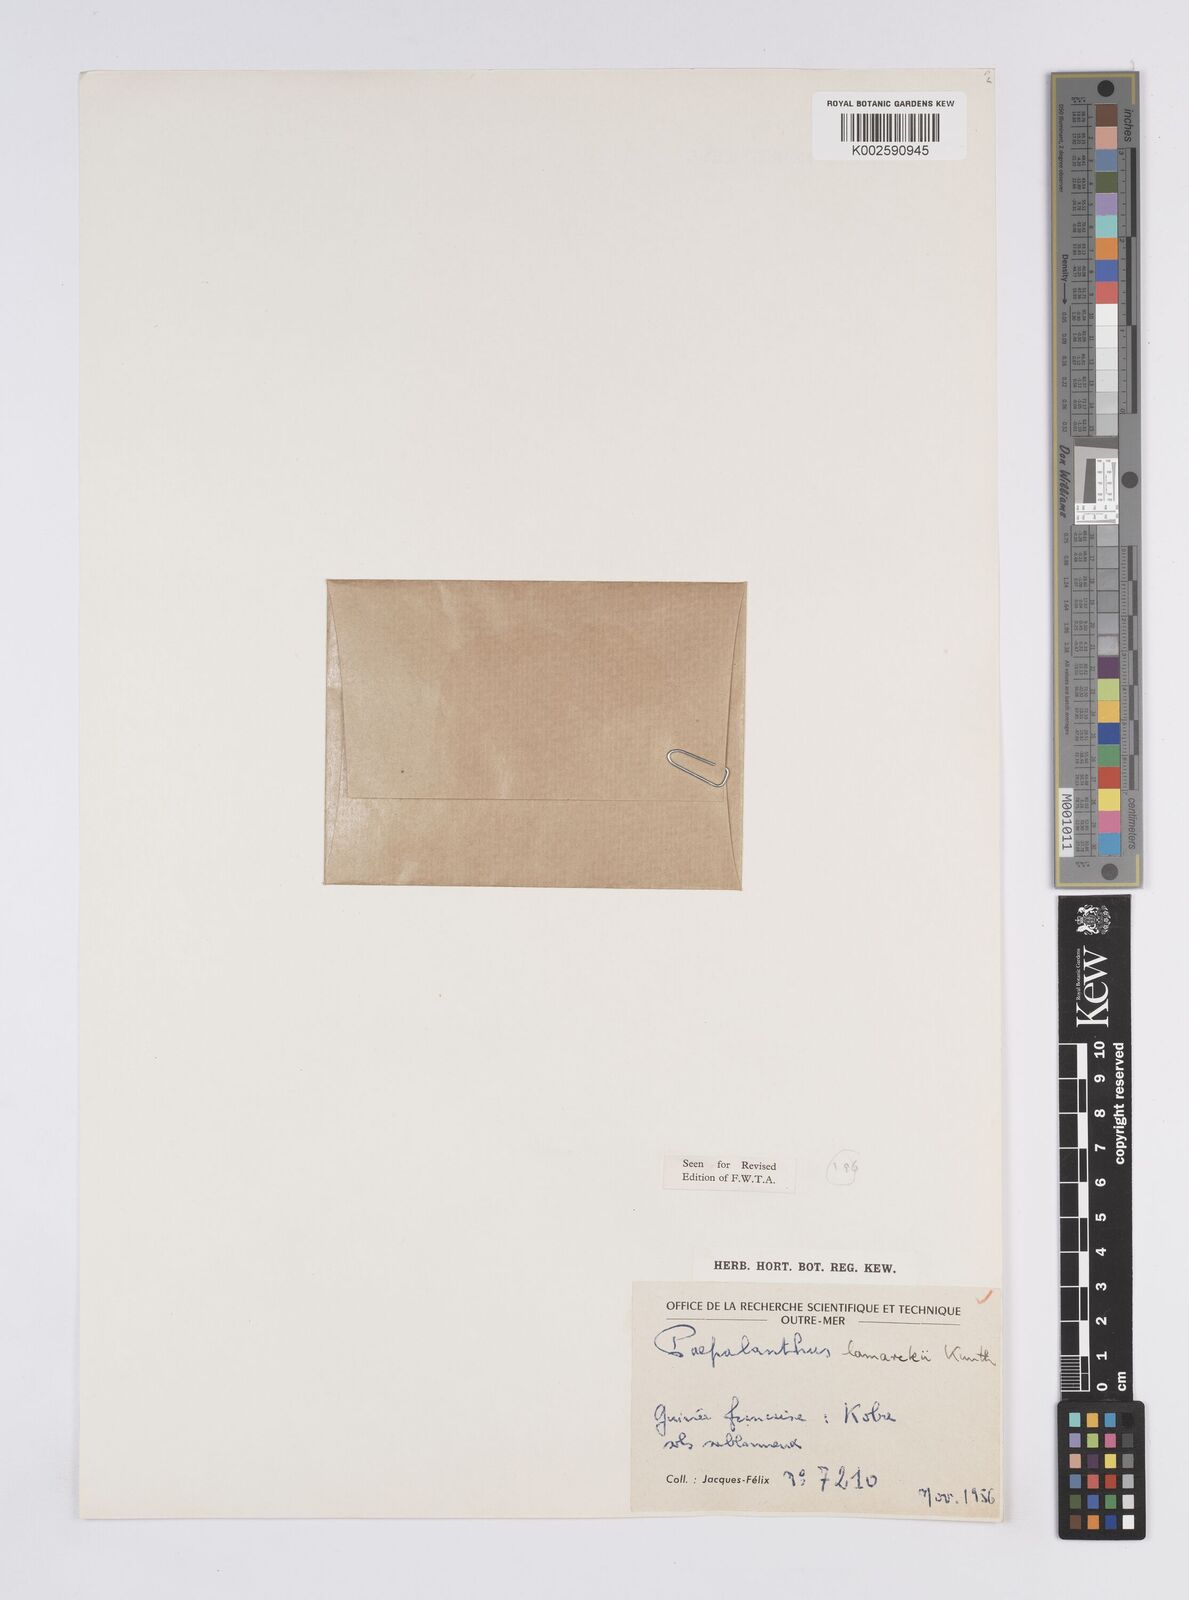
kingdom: Plantae
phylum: Tracheophyta
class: Liliopsida
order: Poales
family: Eriocaulaceae
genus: Paepalanthus
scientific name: Paepalanthus lamarckii
